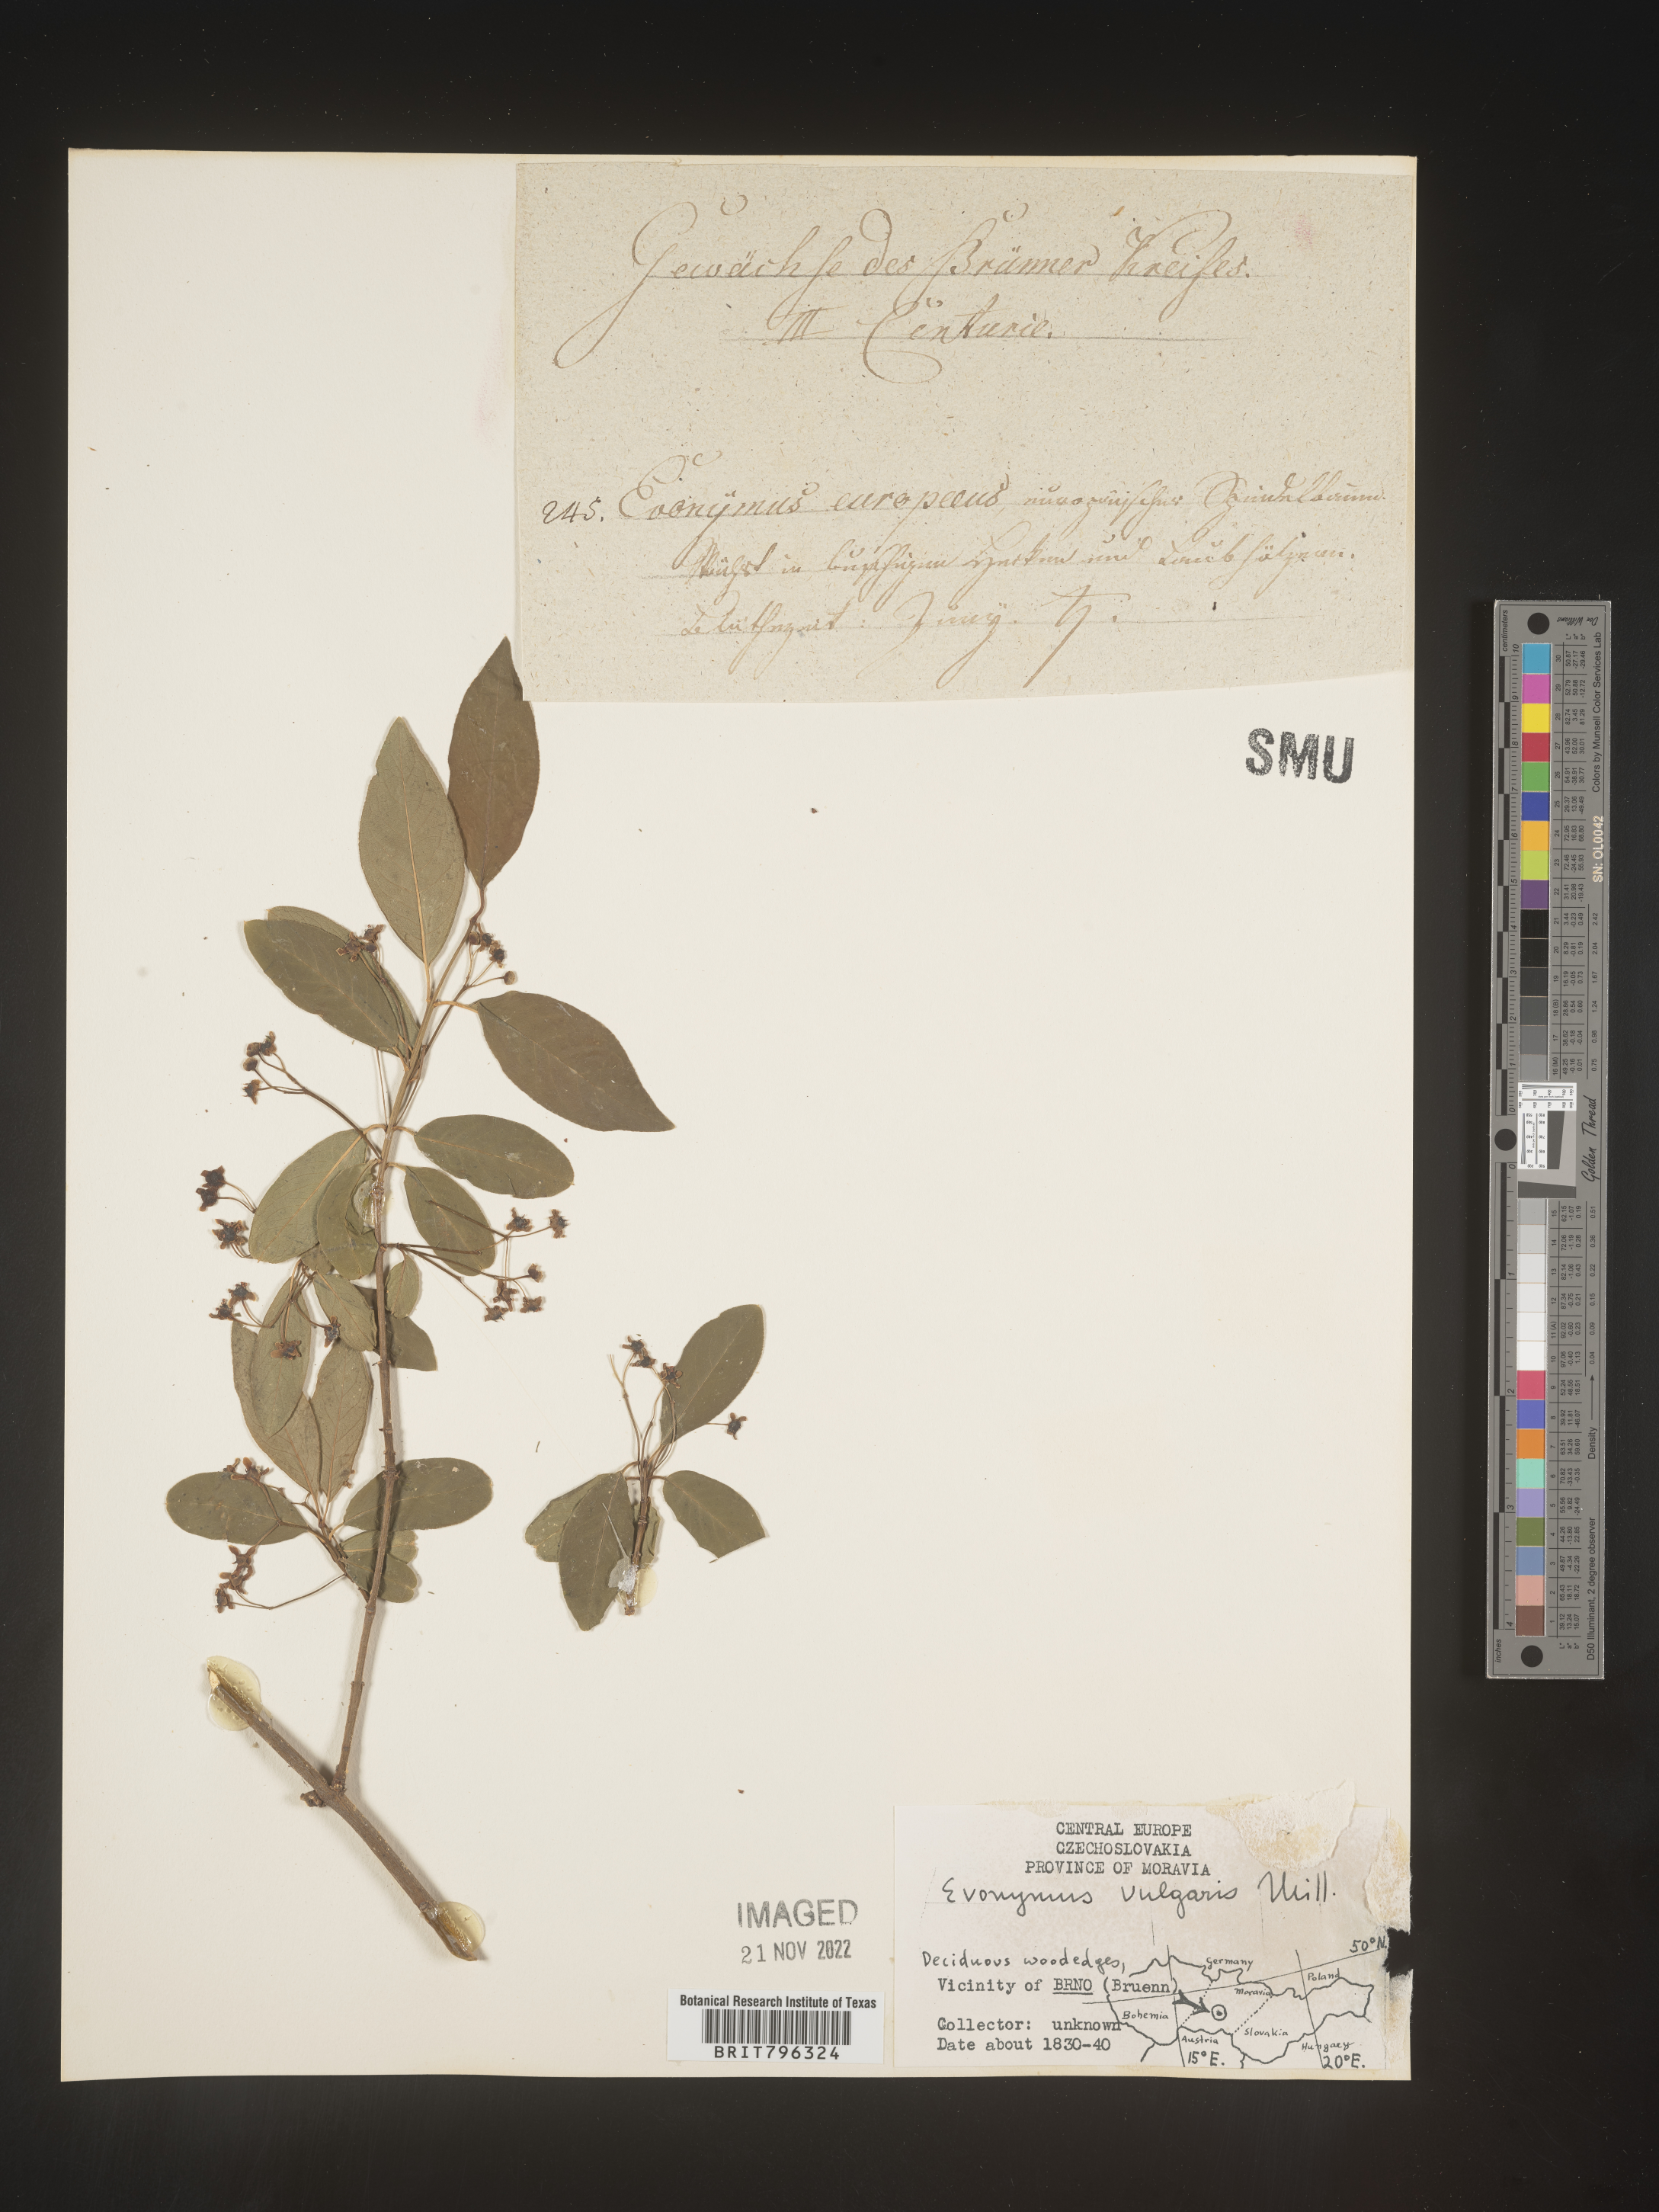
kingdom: Plantae
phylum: Tracheophyta
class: Magnoliopsida
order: Celastrales
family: Celastraceae
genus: Euonymus
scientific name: Euonymus
